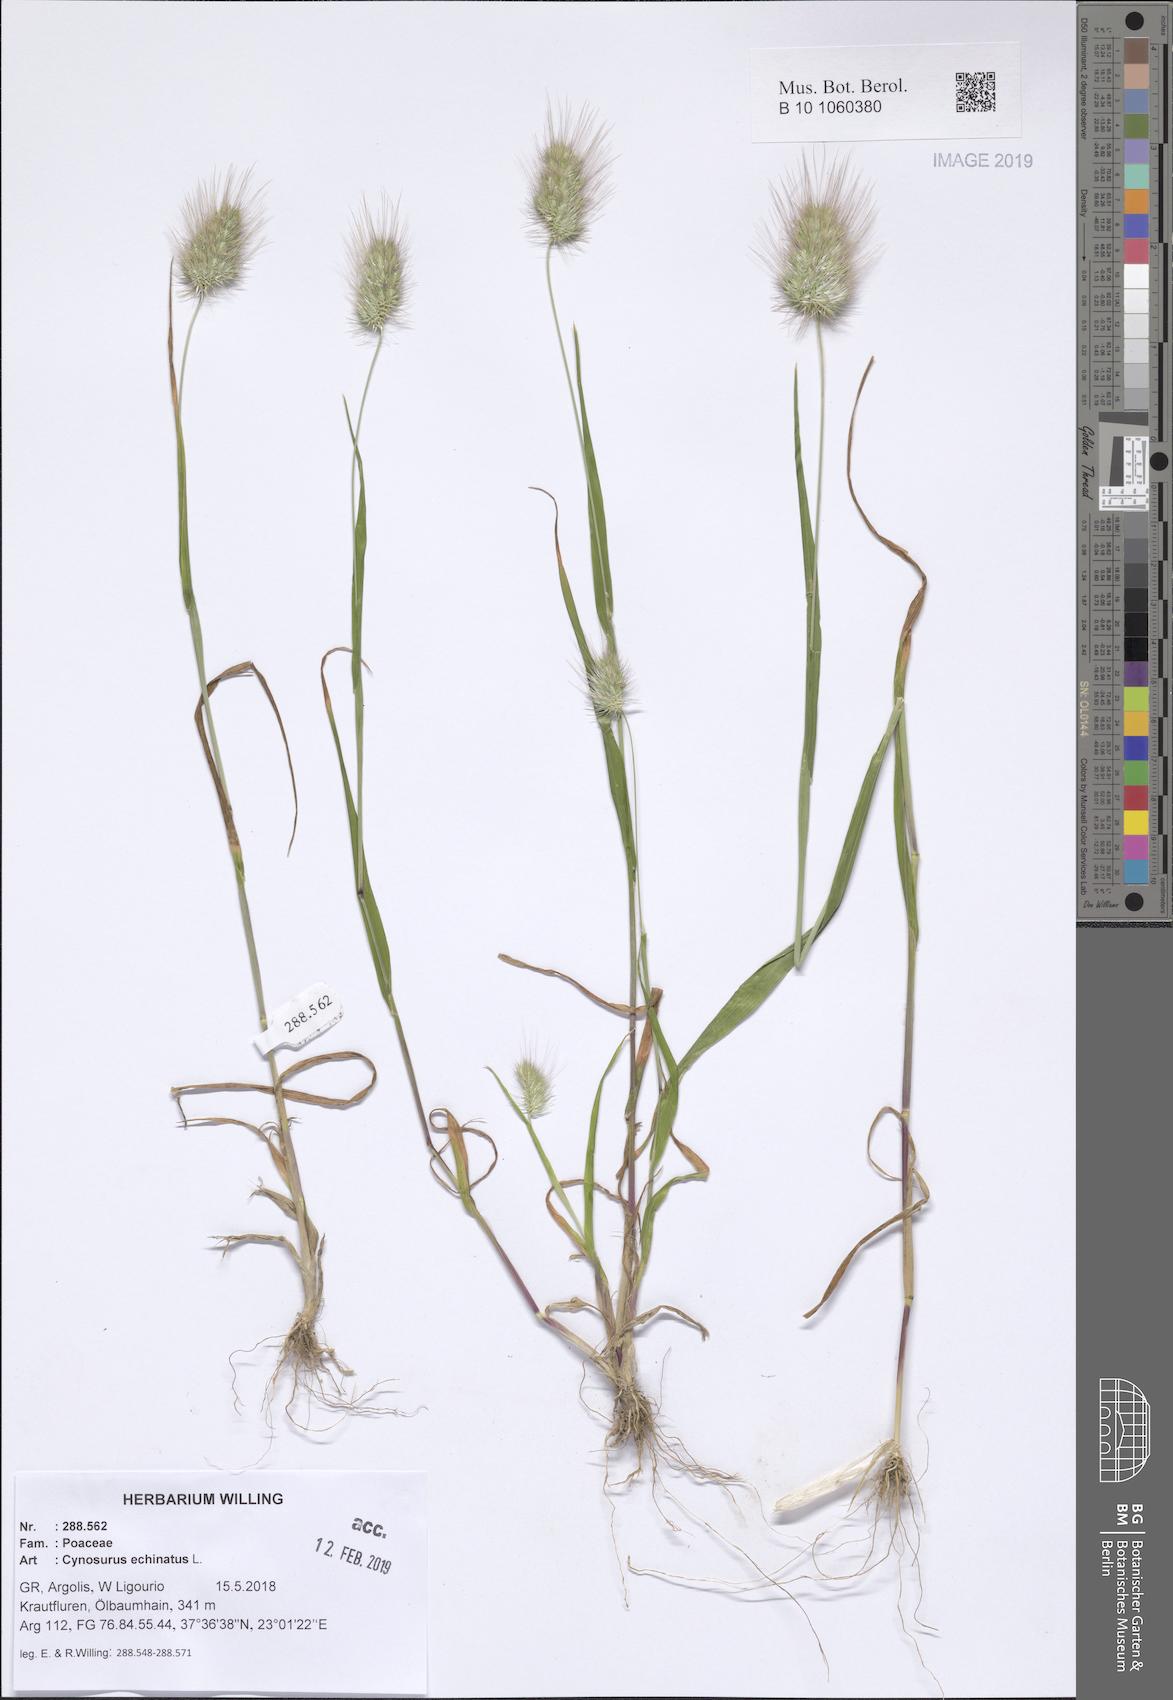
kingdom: Plantae
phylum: Tracheophyta
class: Liliopsida
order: Poales
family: Poaceae
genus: Cynosurus
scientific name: Cynosurus echinatus
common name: Rough dog's-tail
